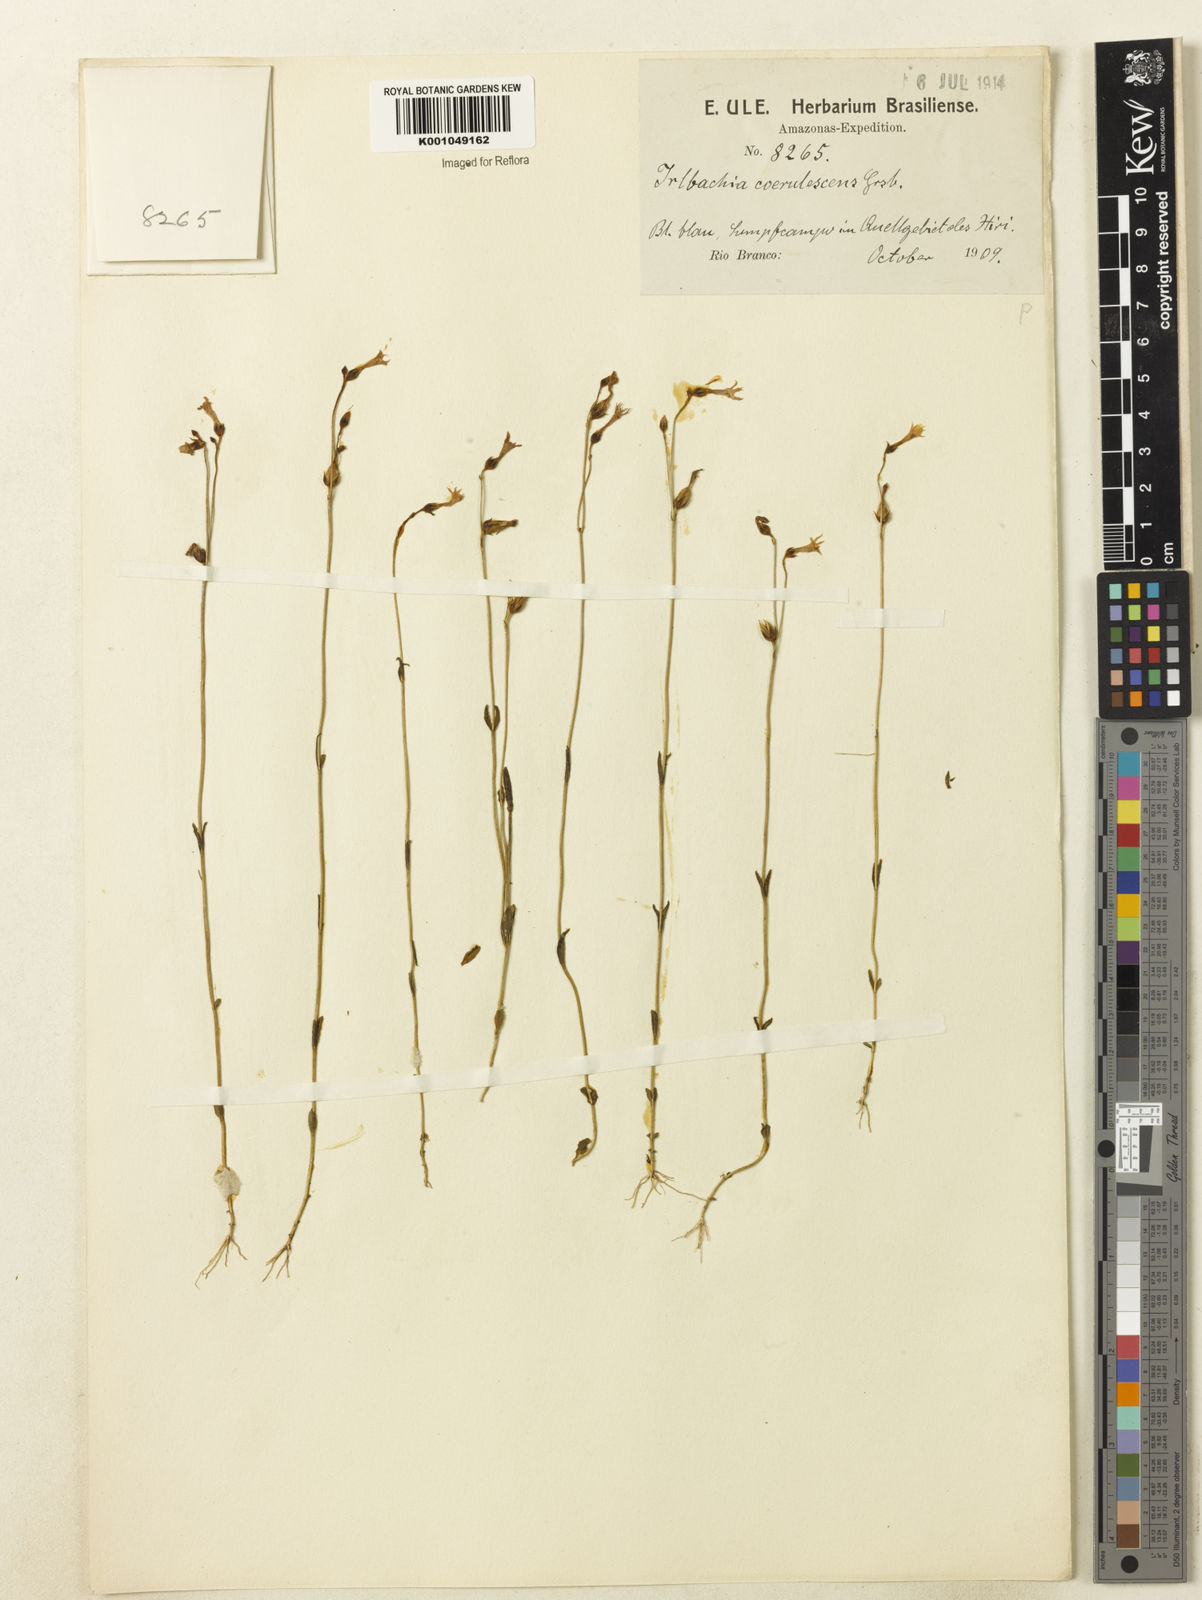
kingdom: Plantae
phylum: Tracheophyta
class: Magnoliopsida
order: Gentianales
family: Gentianaceae
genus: Tetrapollinia
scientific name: Tetrapollinia caerulescens
